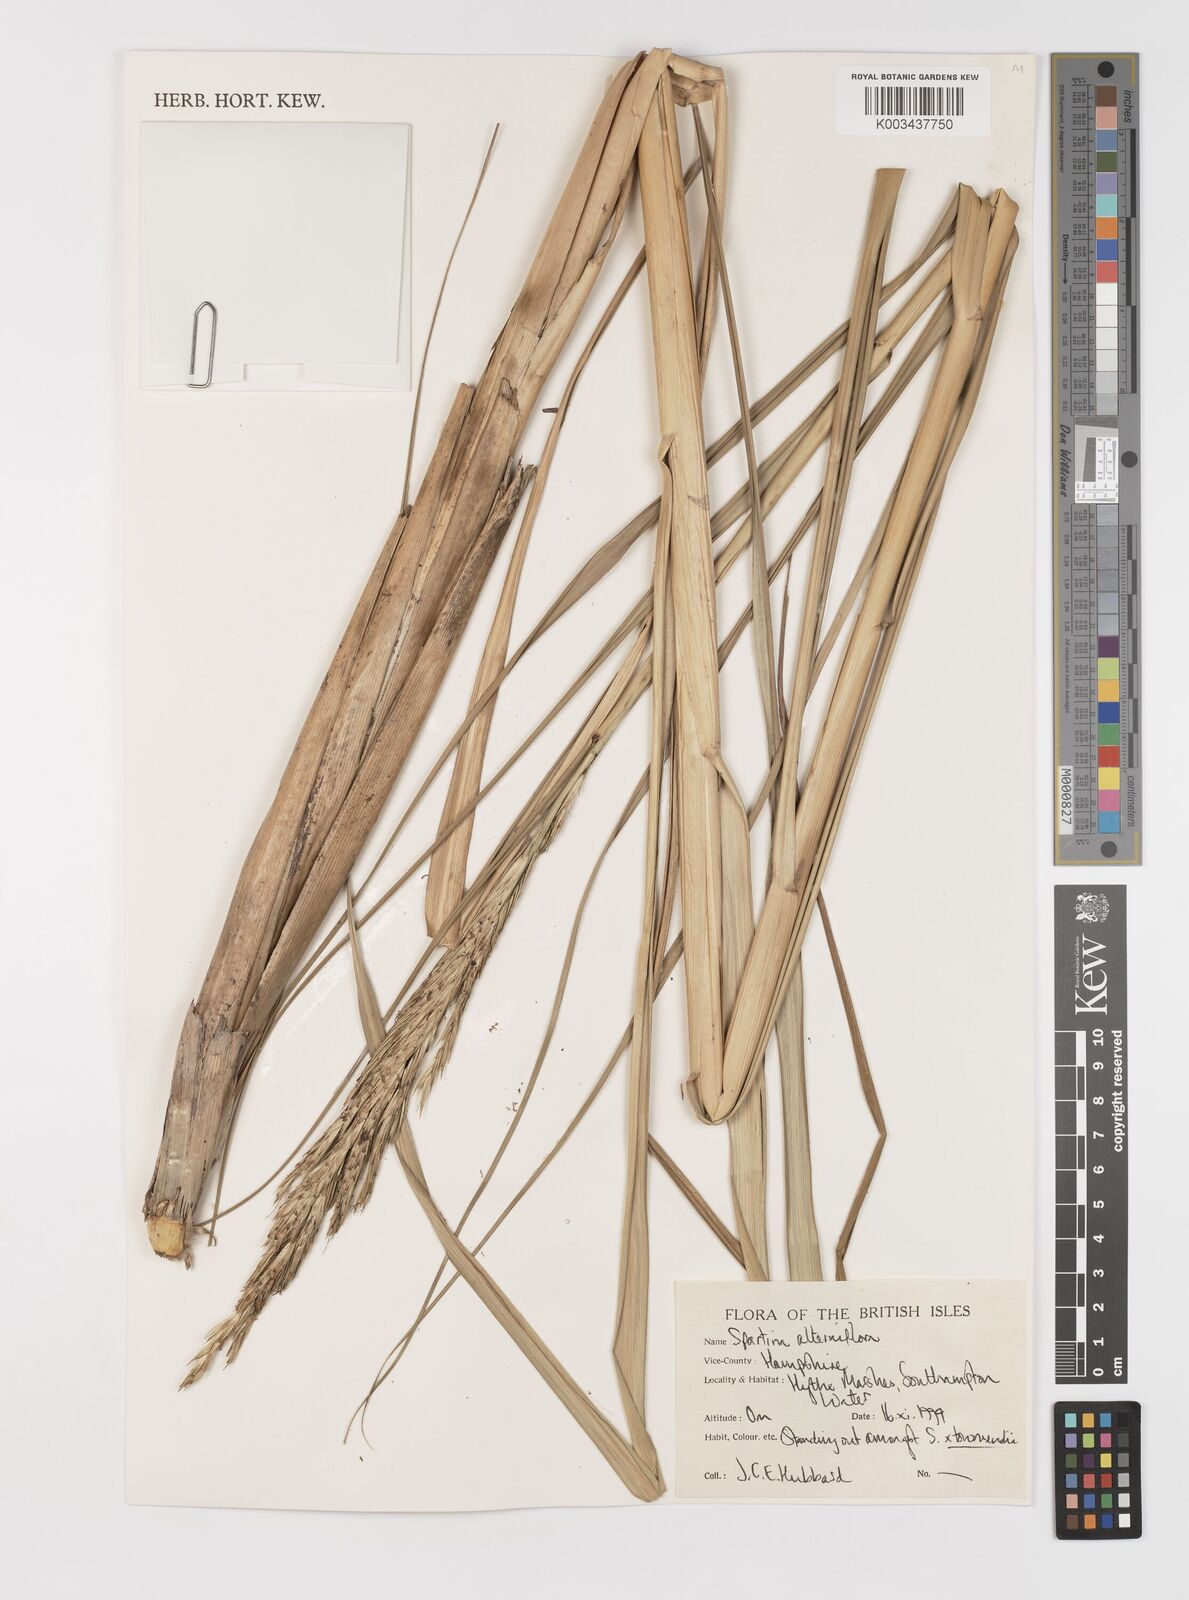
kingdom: Plantae
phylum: Tracheophyta
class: Liliopsida
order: Poales
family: Poaceae
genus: Sporobolus
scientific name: Sporobolus alterniflorus
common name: Atlantic cordgrass
